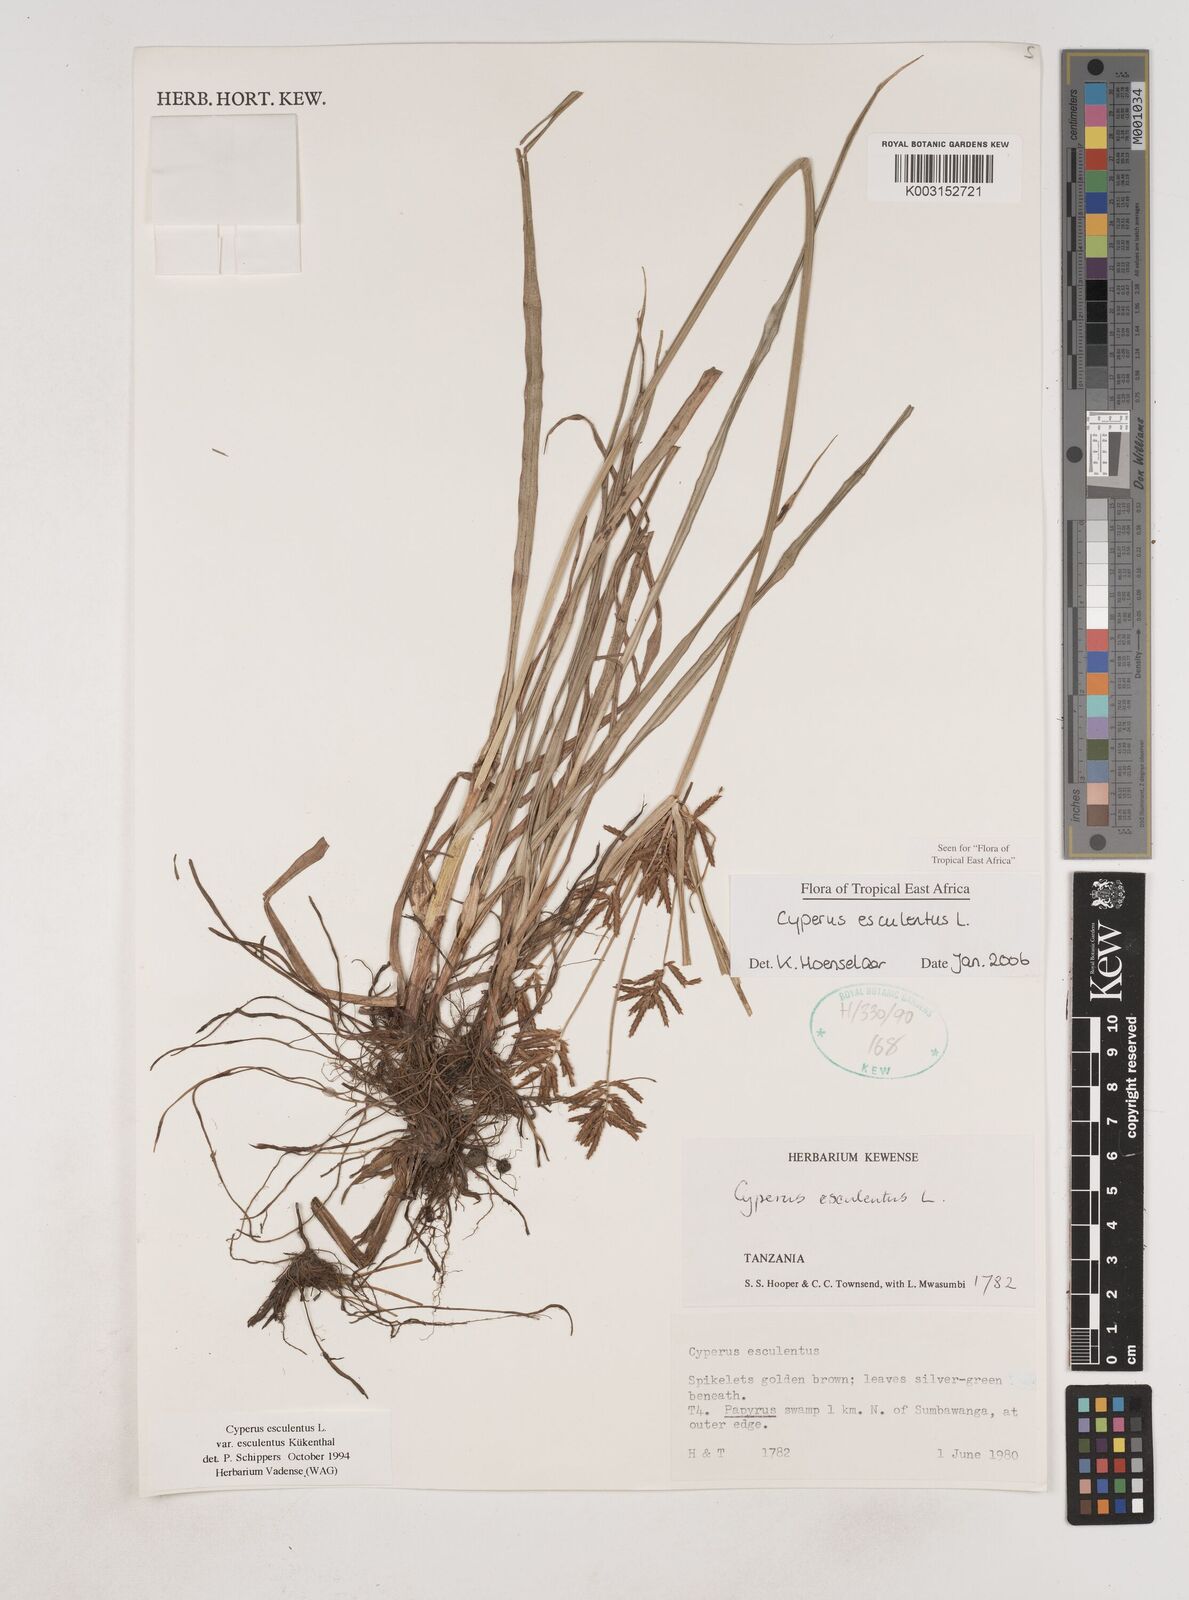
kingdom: Plantae
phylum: Tracheophyta
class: Liliopsida
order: Poales
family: Cyperaceae
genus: Cyperus
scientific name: Cyperus esculentus
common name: Yellow nutsedge
